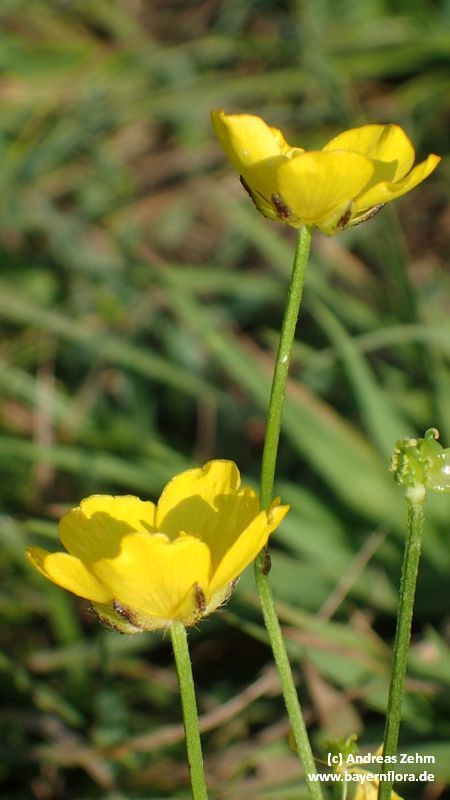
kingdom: Plantae
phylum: Tracheophyta
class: Magnoliopsida
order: Ranunculales
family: Ranunculaceae
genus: Ranunculus
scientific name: Ranunculus polyanthemos
